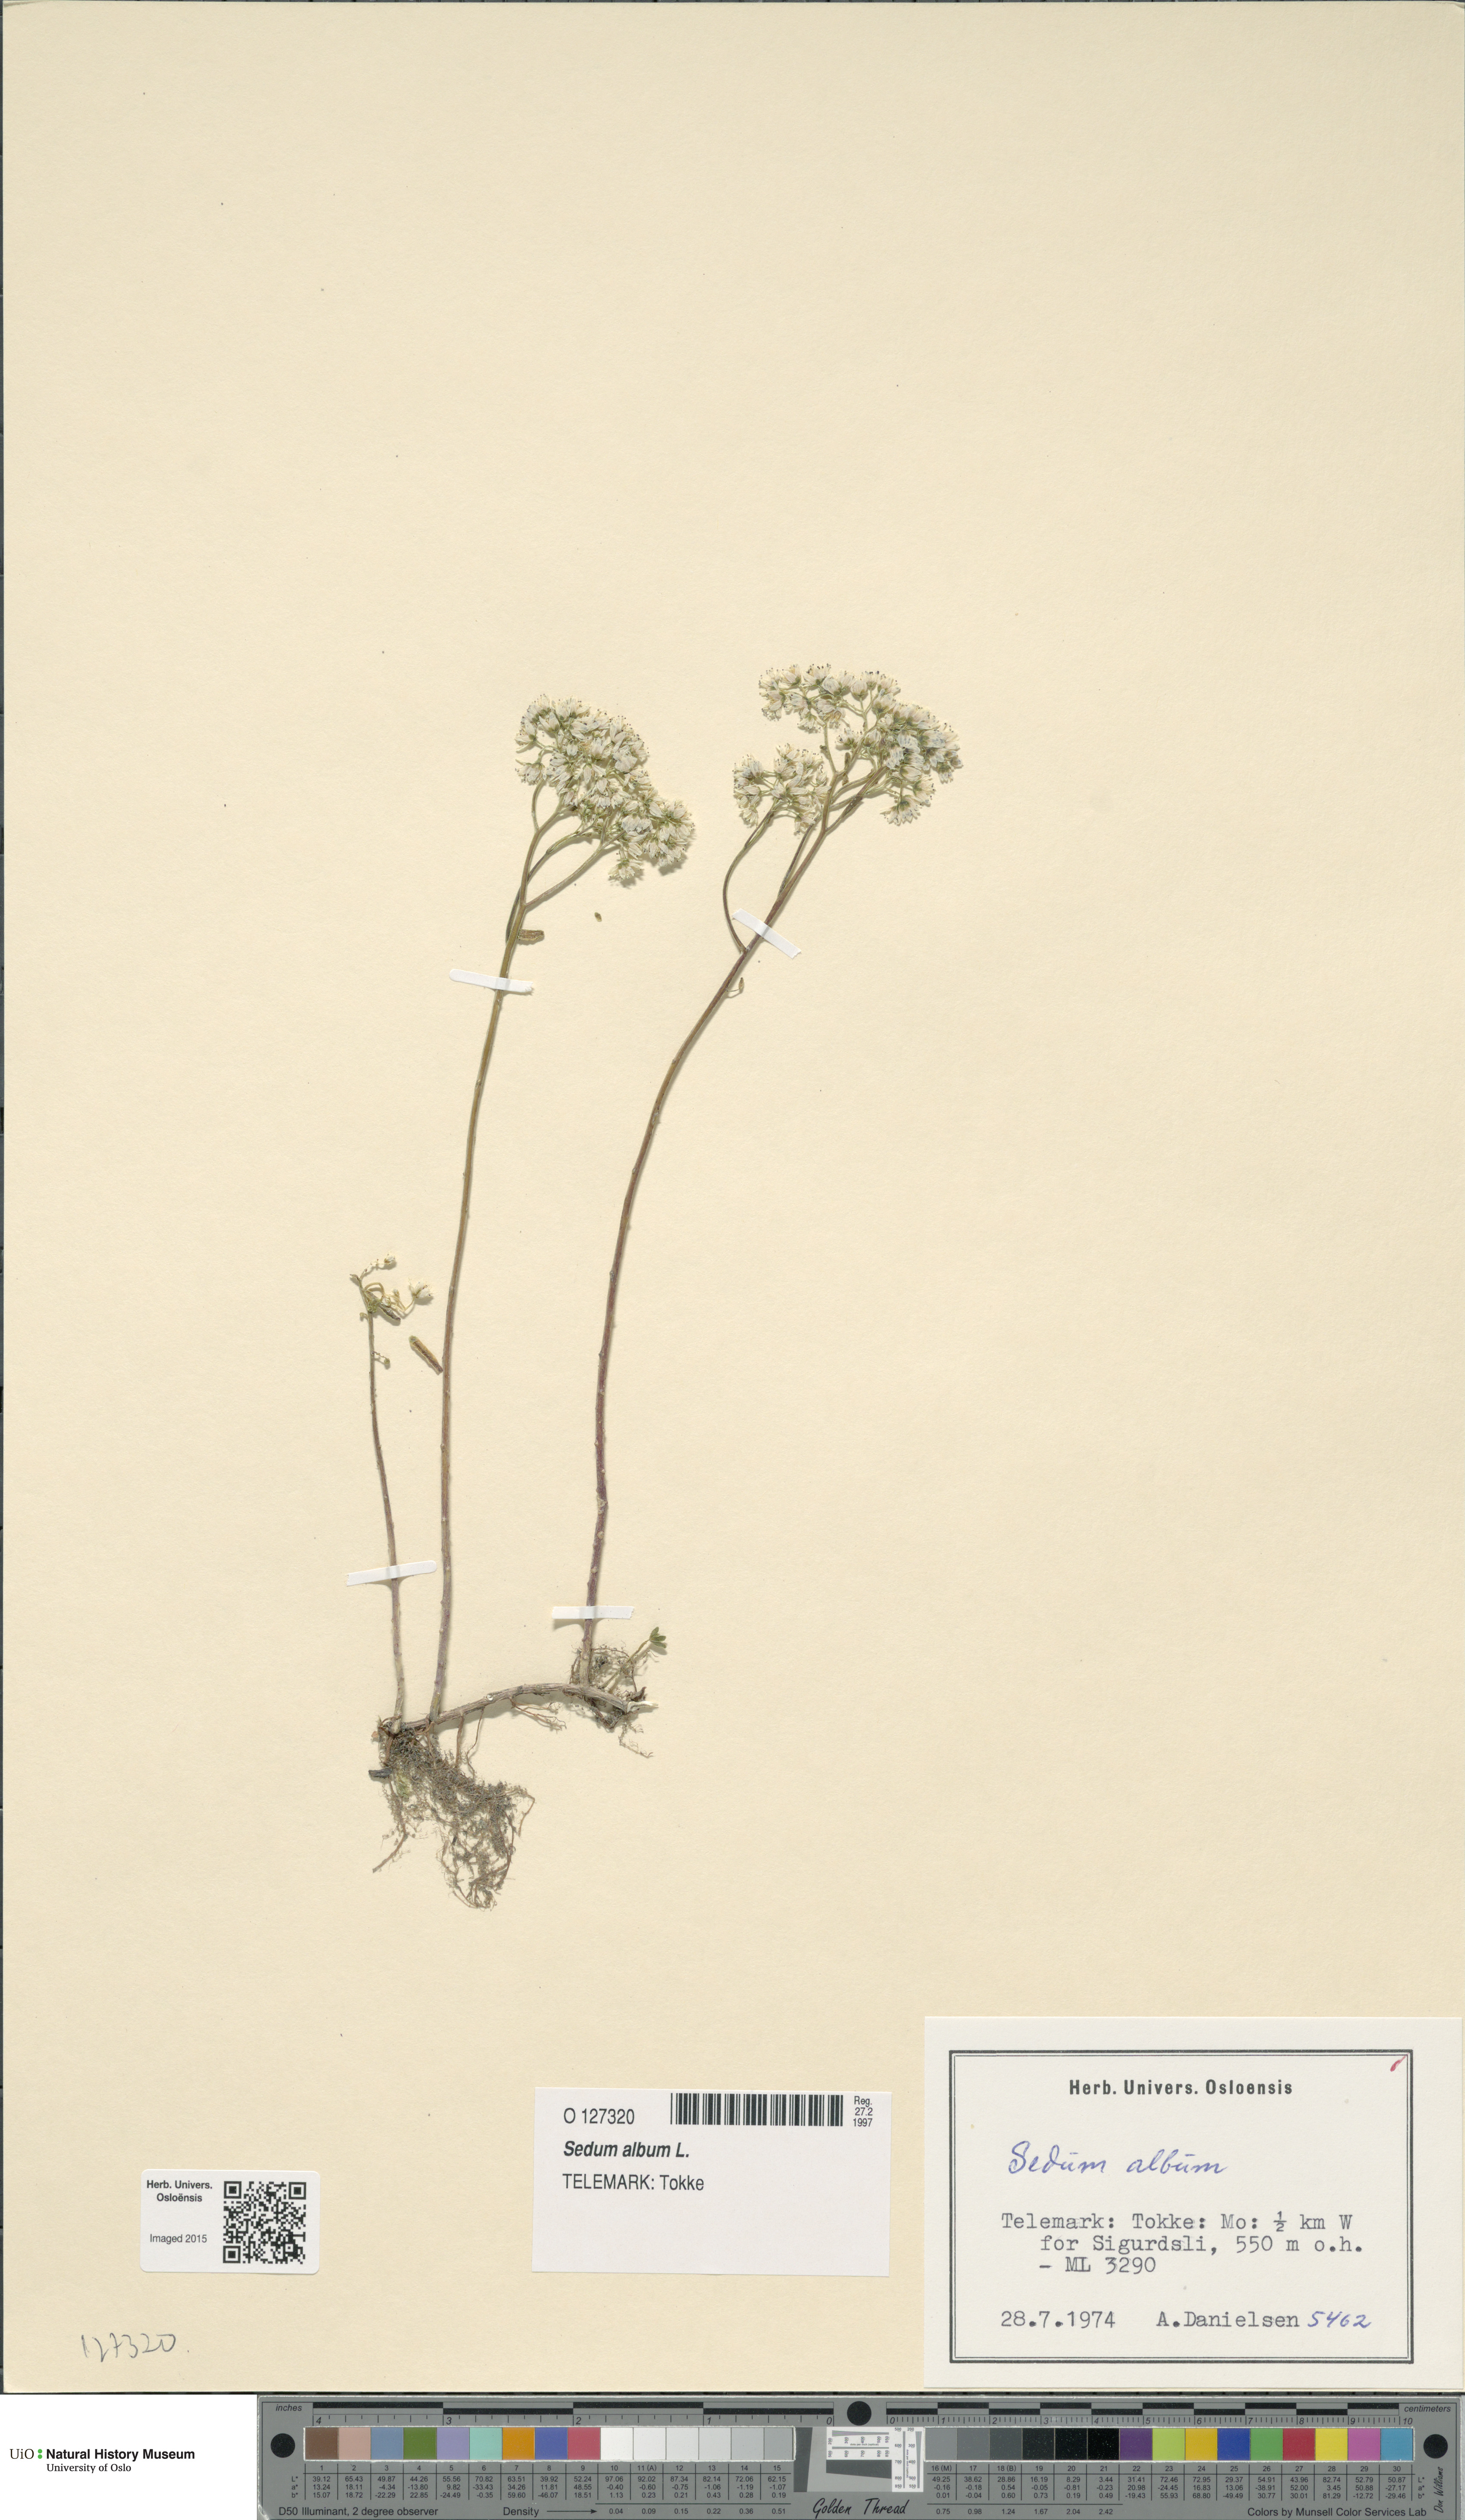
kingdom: Plantae
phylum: Tracheophyta
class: Magnoliopsida
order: Saxifragales
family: Crassulaceae
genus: Sedum
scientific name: Sedum album
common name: White stonecrop
